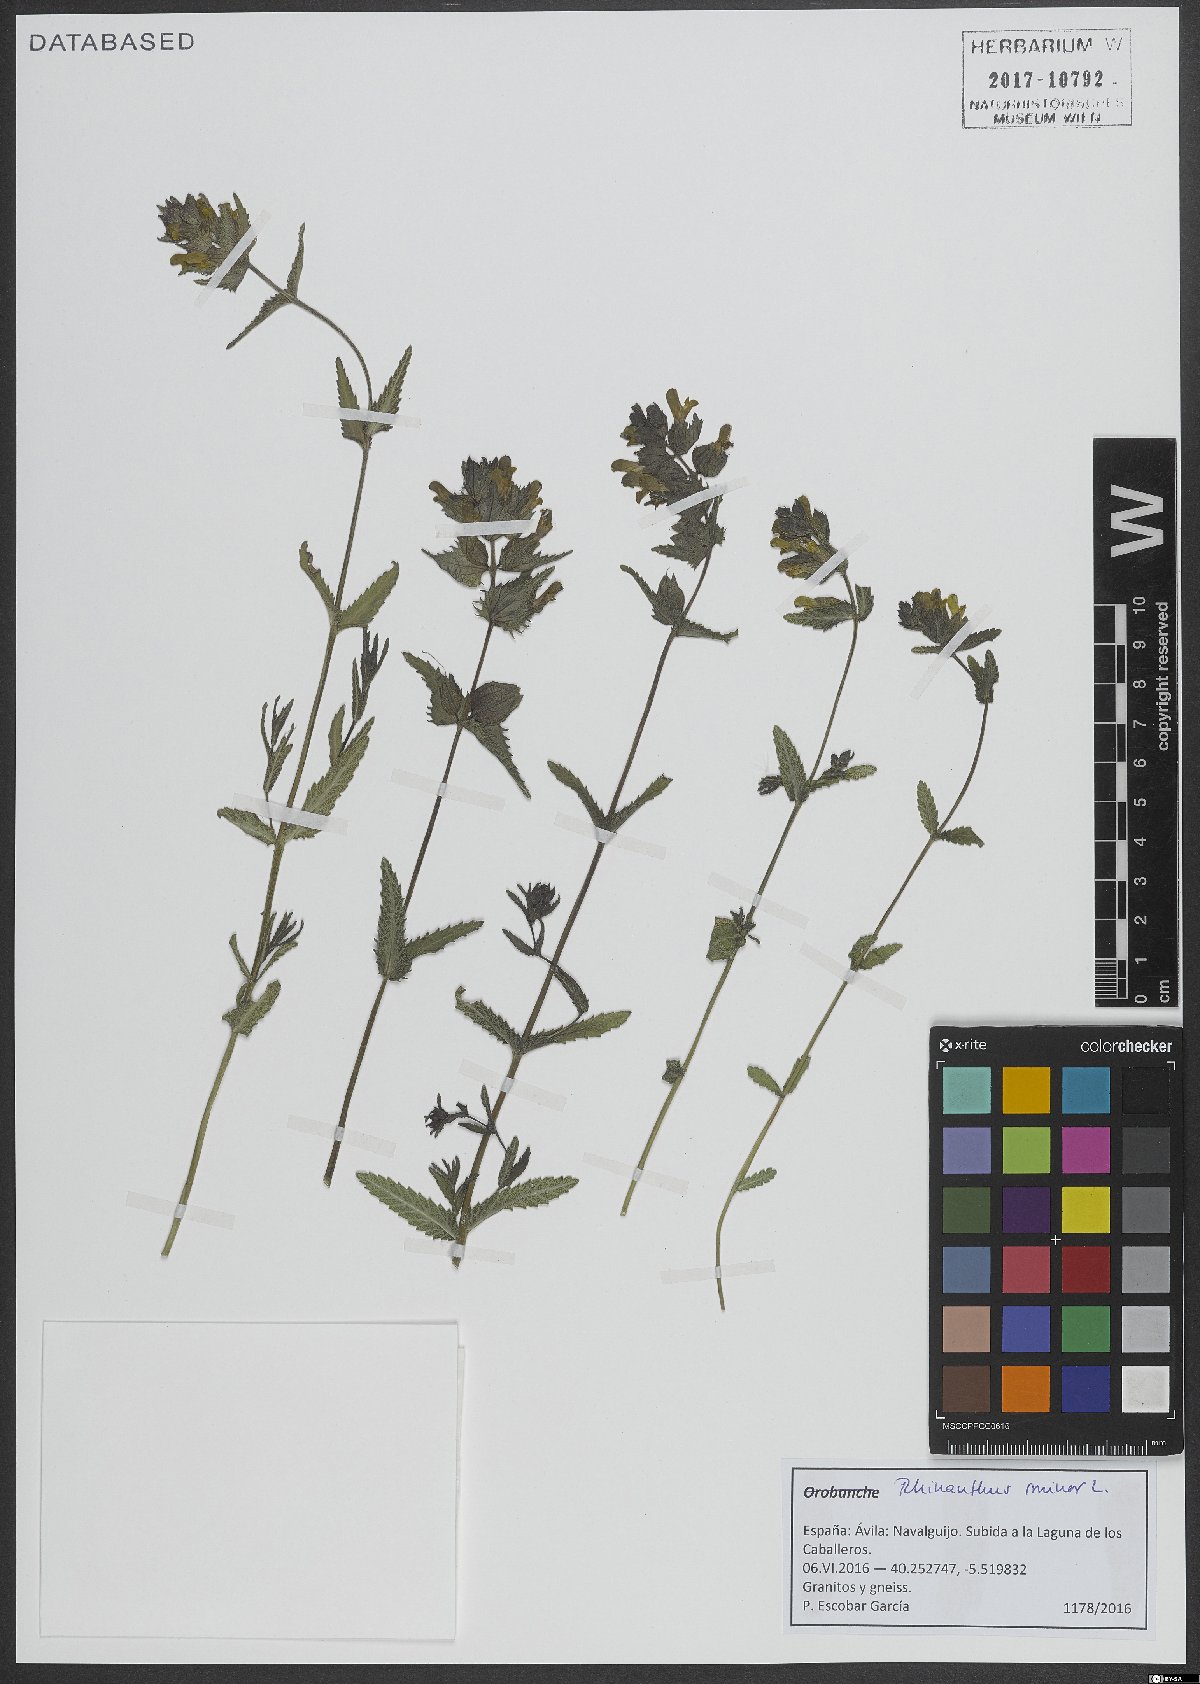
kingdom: Plantae
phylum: Tracheophyta
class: Magnoliopsida
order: Lamiales
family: Orobanchaceae
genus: Rhinanthus
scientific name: Rhinanthus minor
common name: Yellow-rattle
